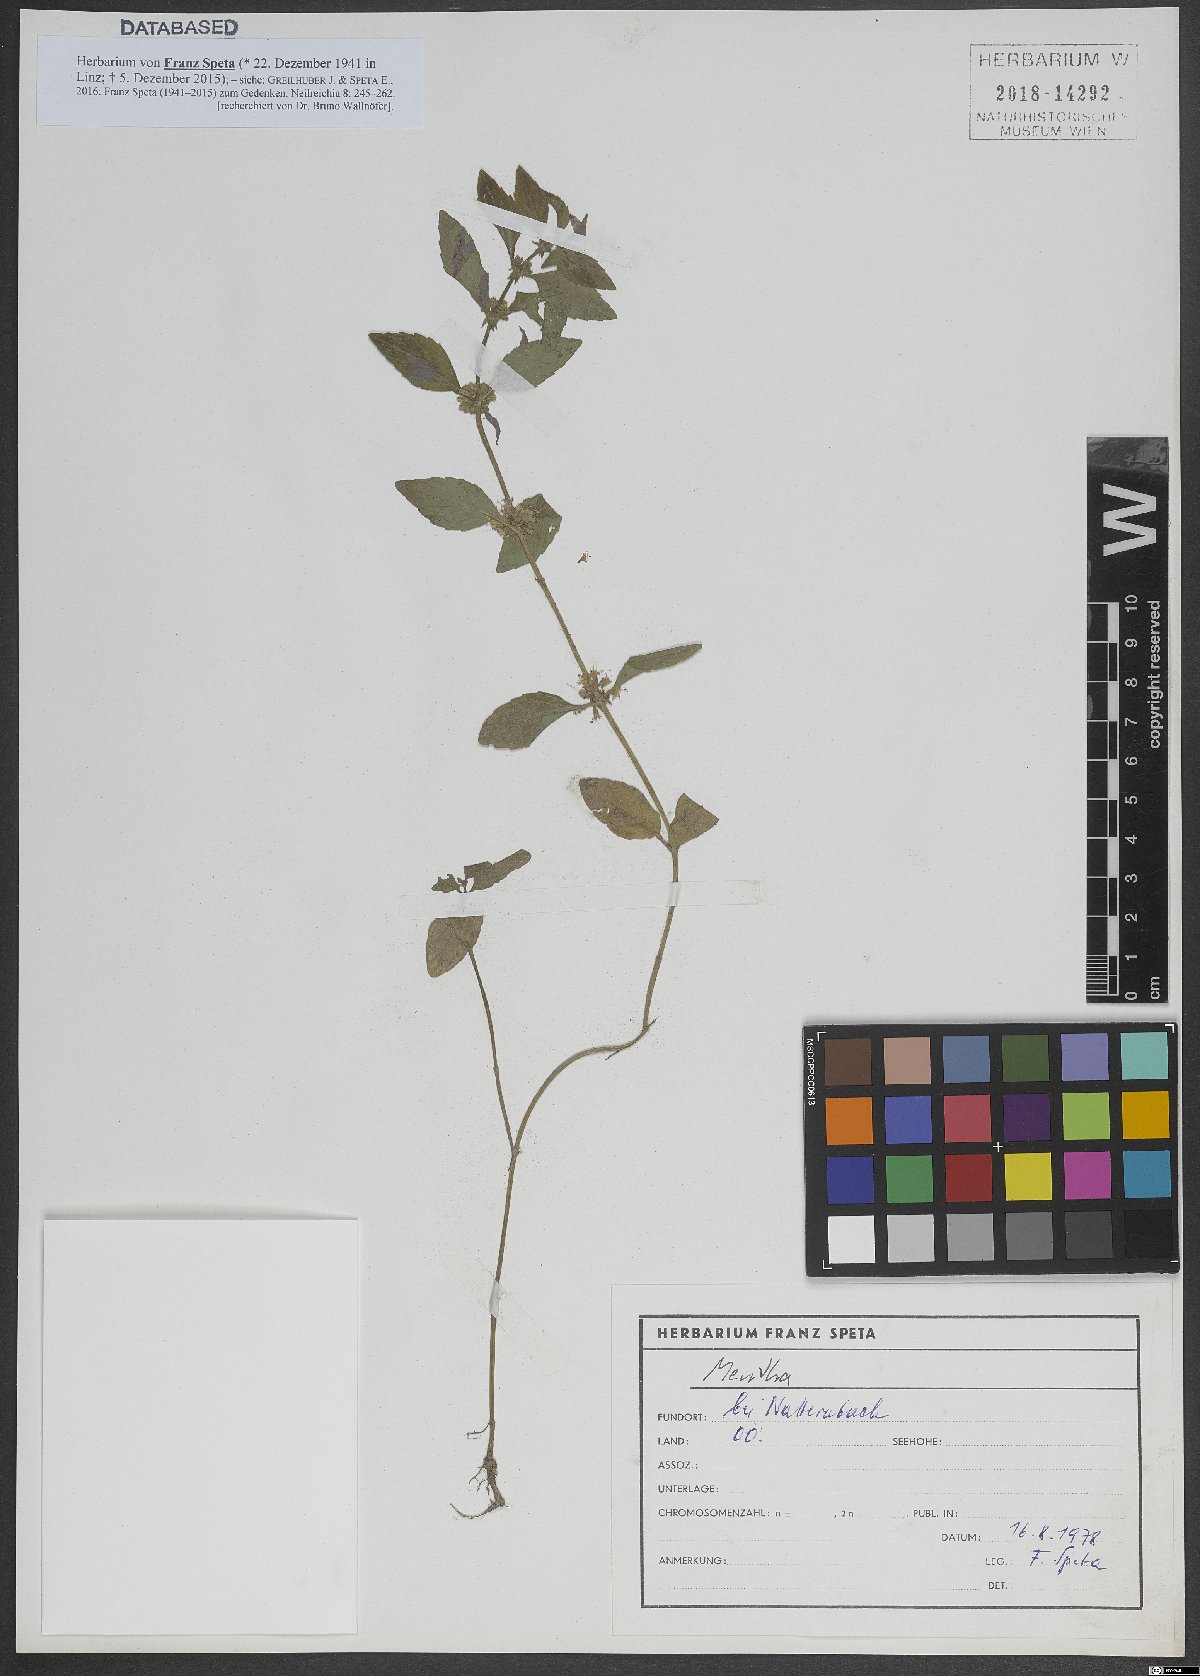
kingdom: Plantae
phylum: Tracheophyta
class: Magnoliopsida
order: Lamiales
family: Lamiaceae
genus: Mentha
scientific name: Mentha
